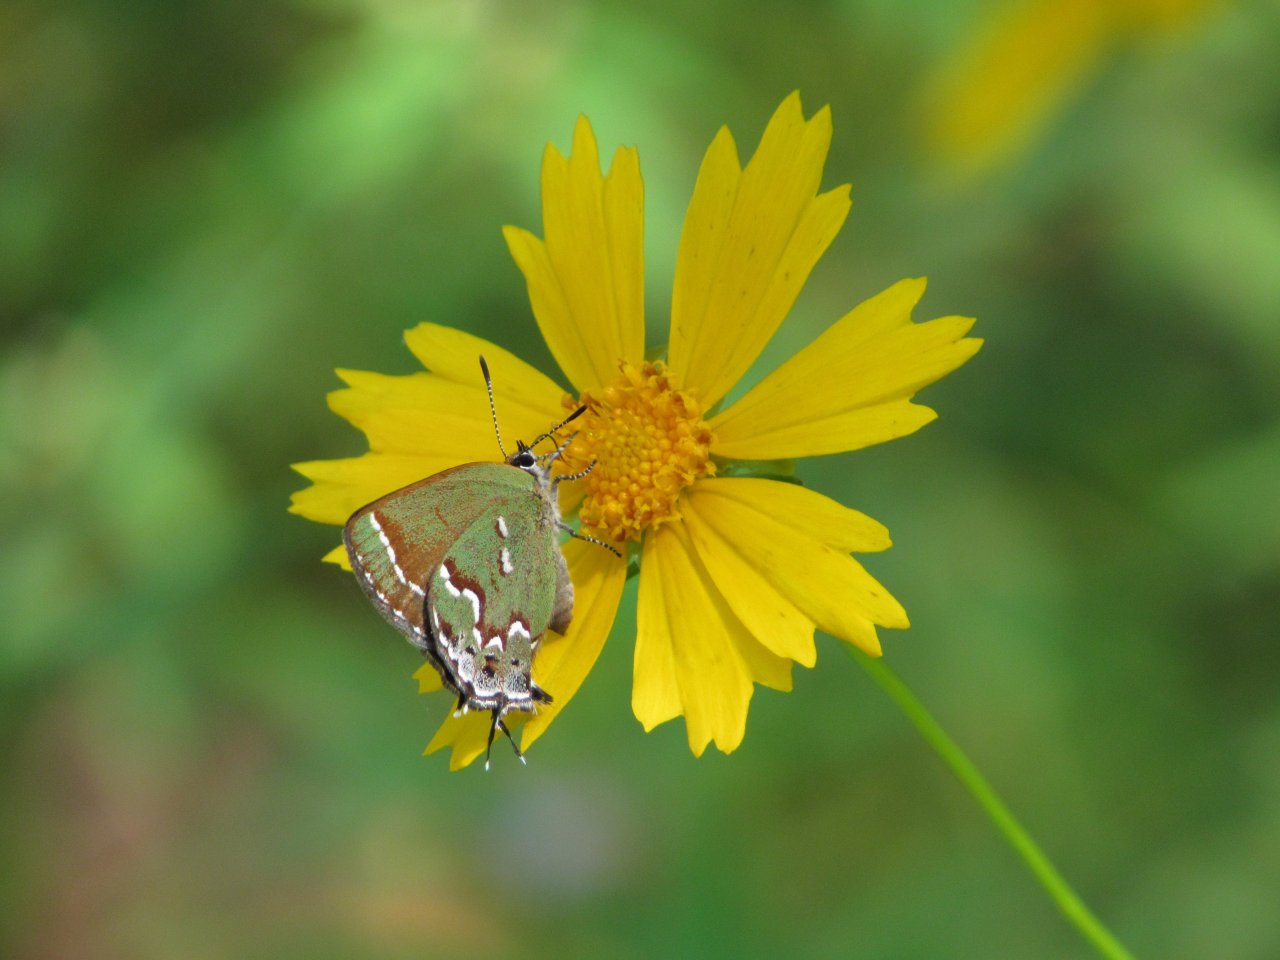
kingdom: Animalia
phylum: Arthropoda
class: Insecta
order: Lepidoptera
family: Lycaenidae
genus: Mitoura
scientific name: Mitoura gryneus
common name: Juniper Hairstreak
